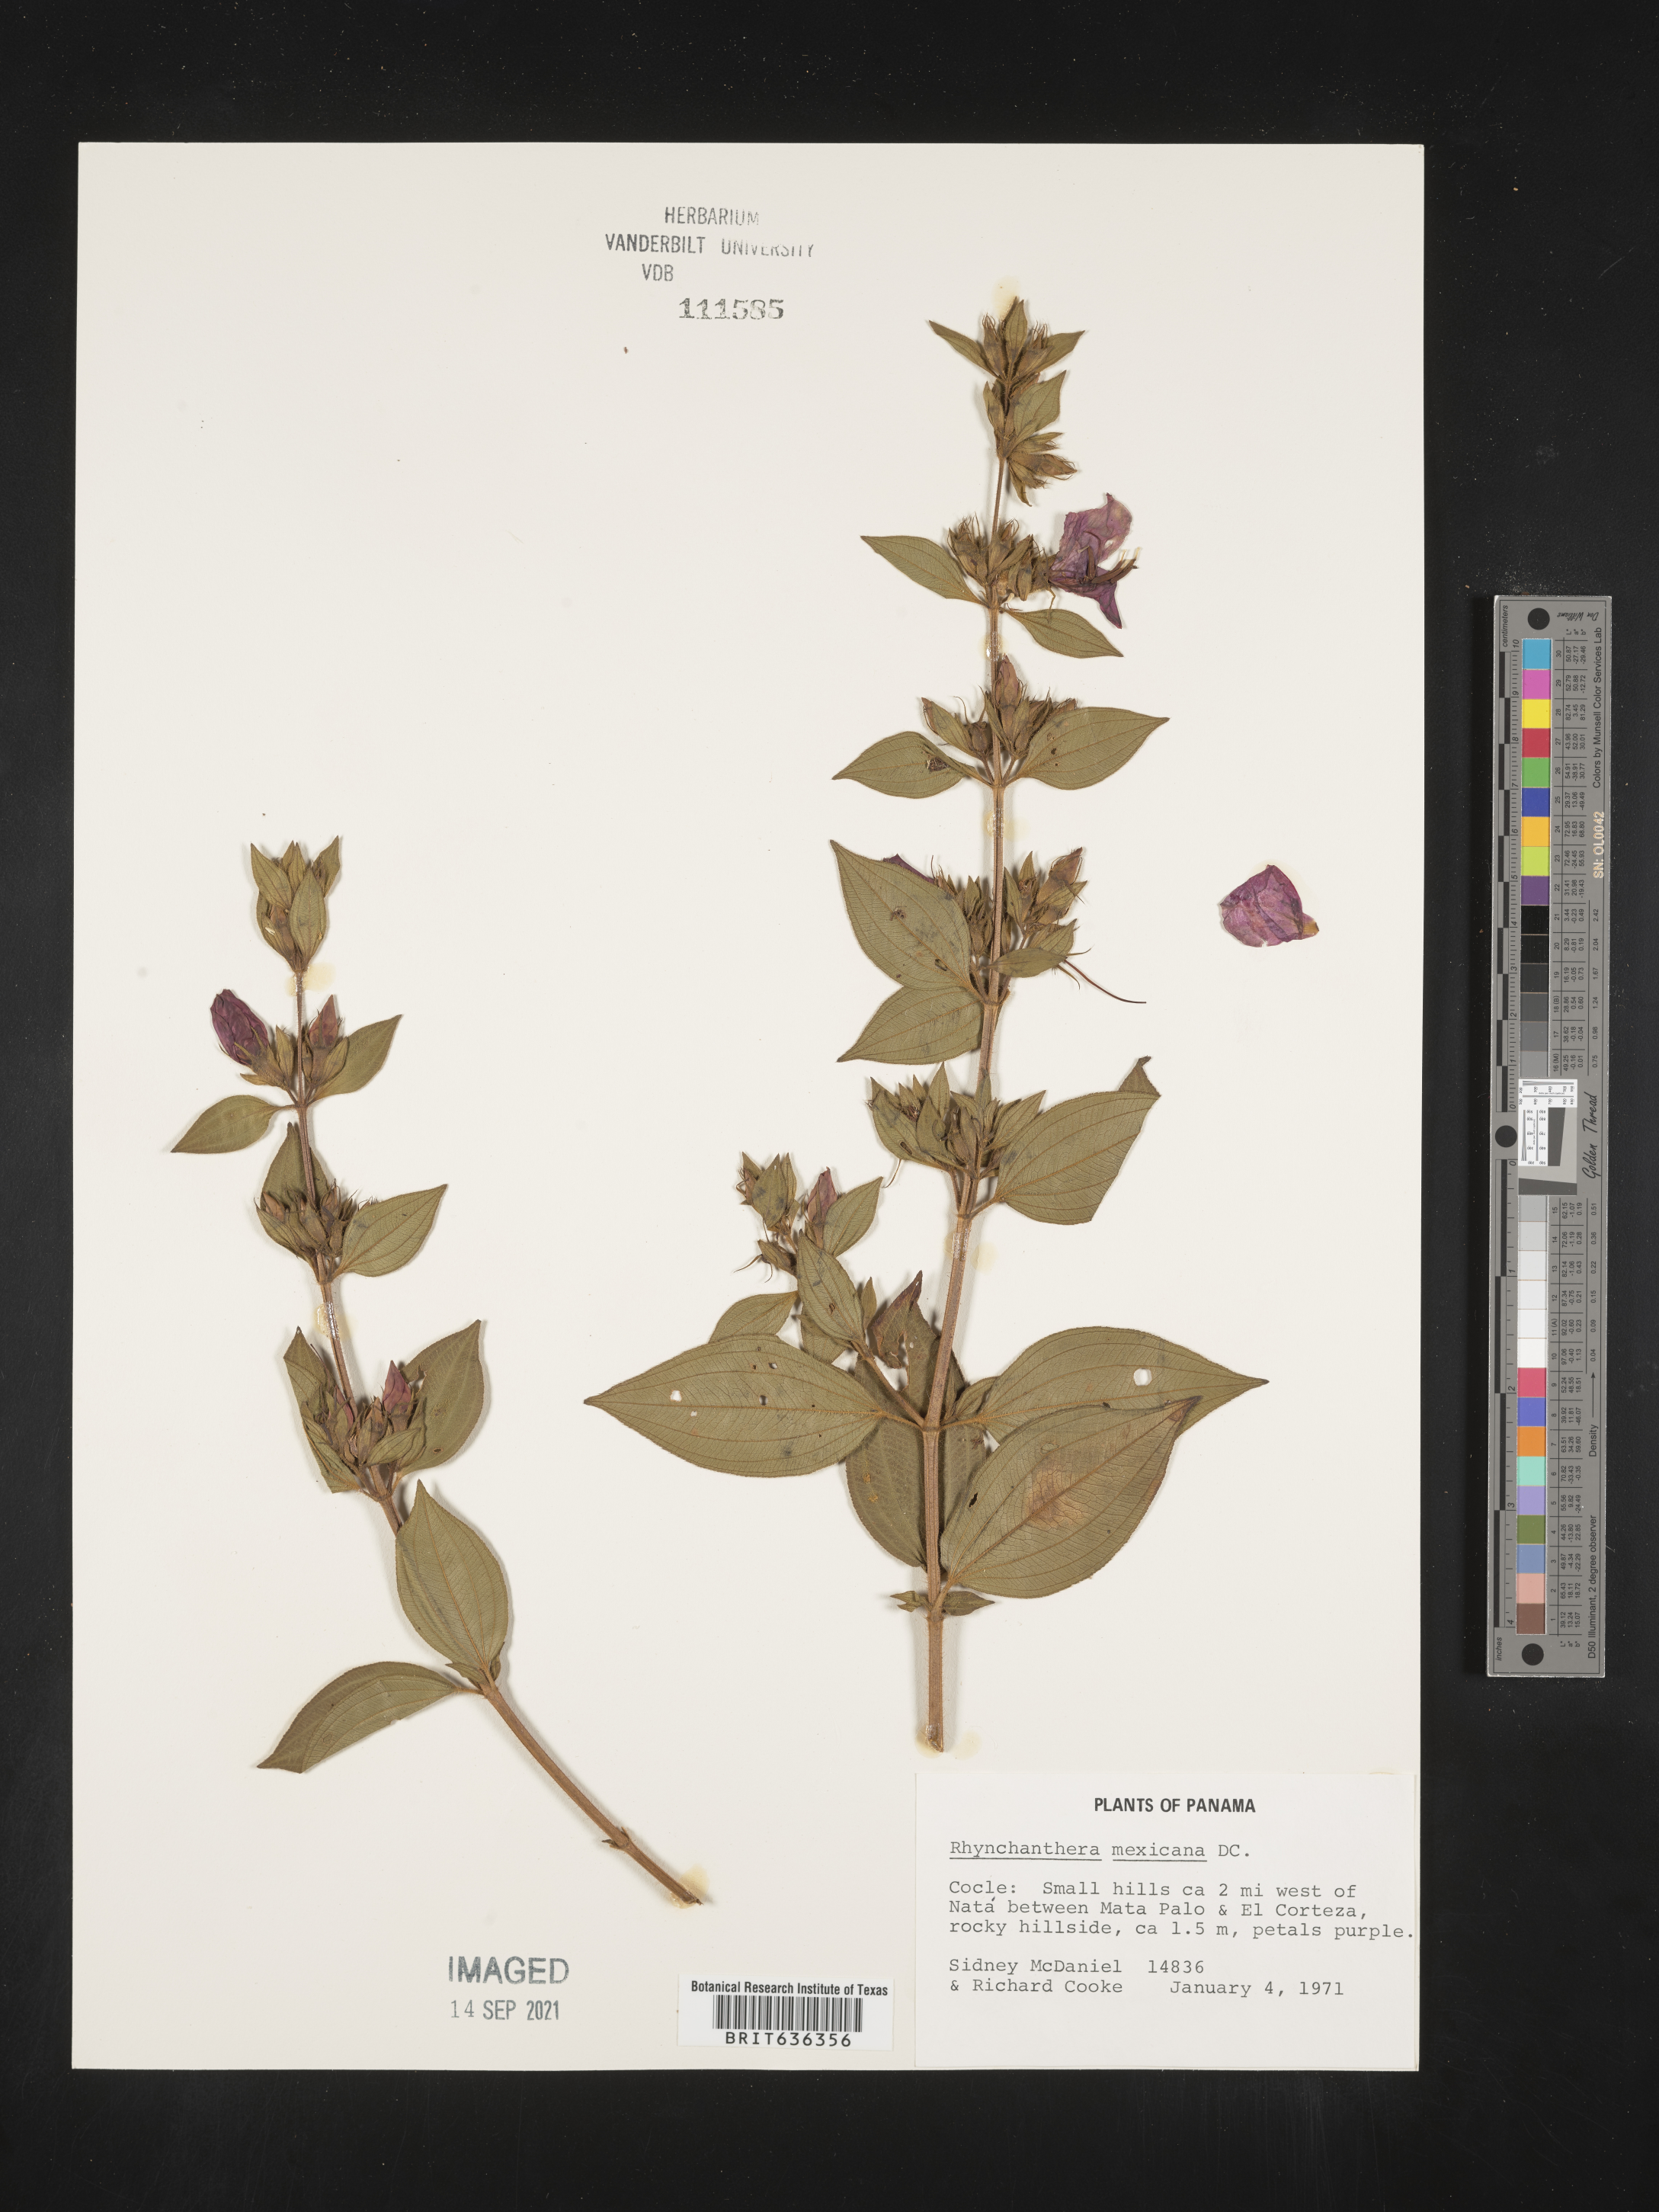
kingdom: Plantae
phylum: Tracheophyta
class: Magnoliopsida
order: Myrtales
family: Melastomataceae
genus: Rhynchanthera
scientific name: Rhynchanthera
